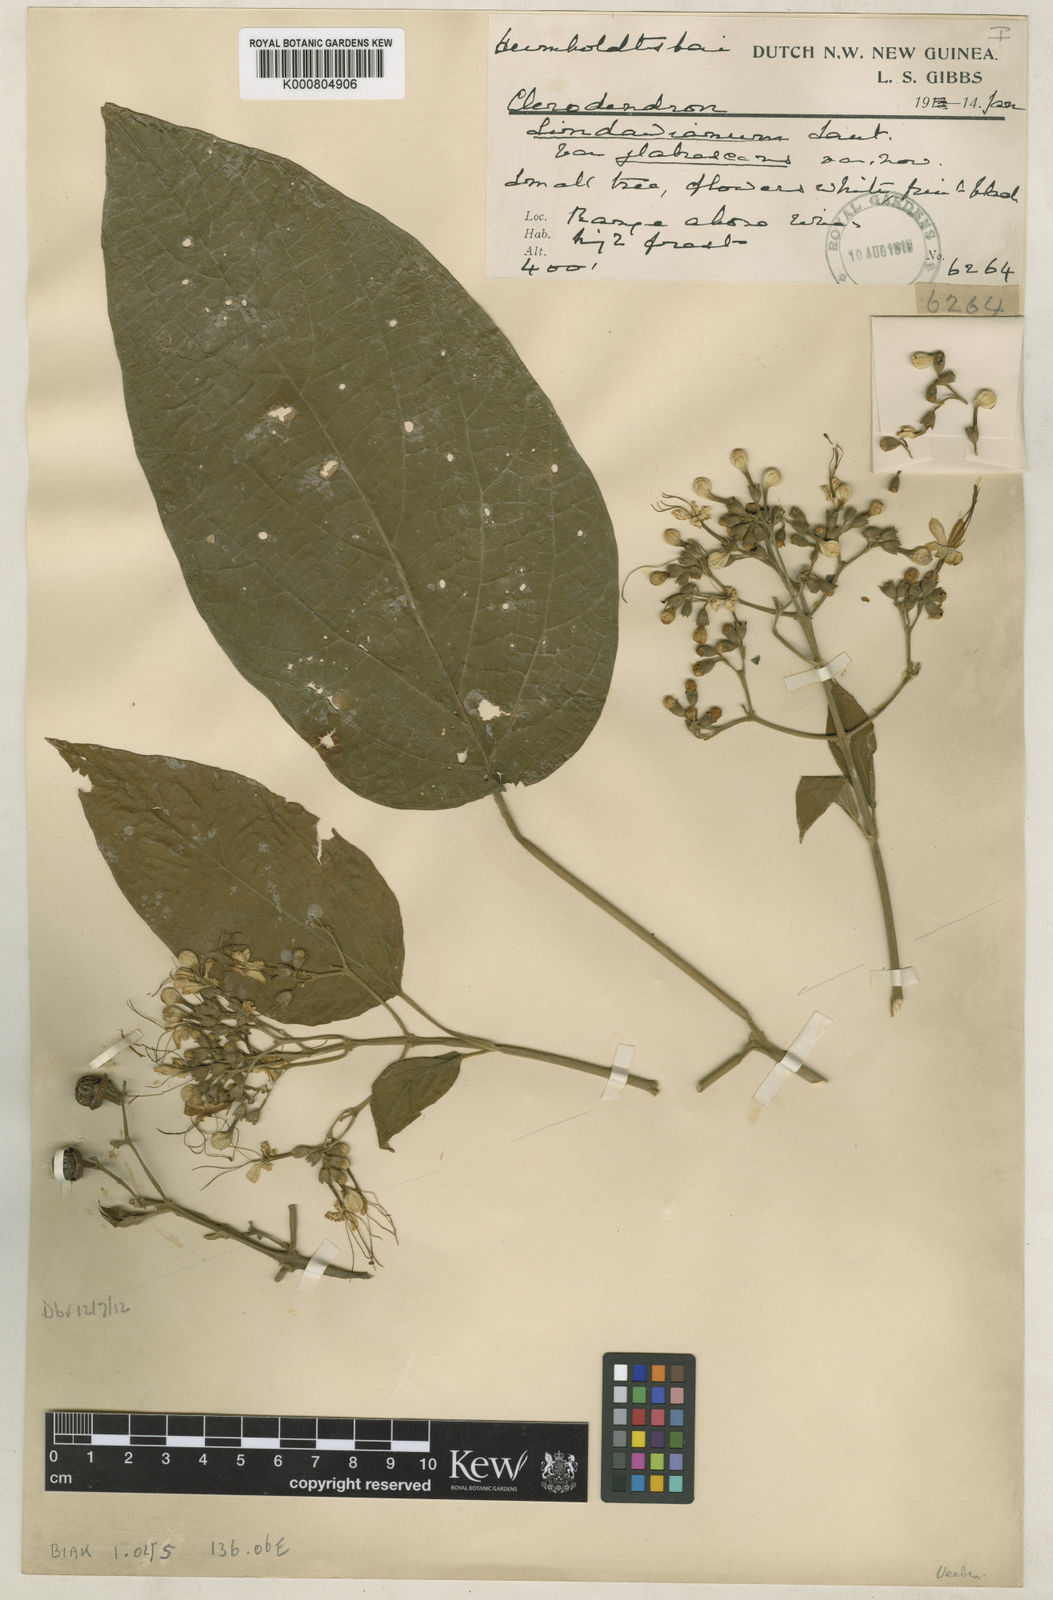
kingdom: Plantae
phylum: Tracheophyta
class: Magnoliopsida
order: Lamiales
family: Lamiaceae
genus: Clerodendrum
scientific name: Clerodendrum tracyanum
